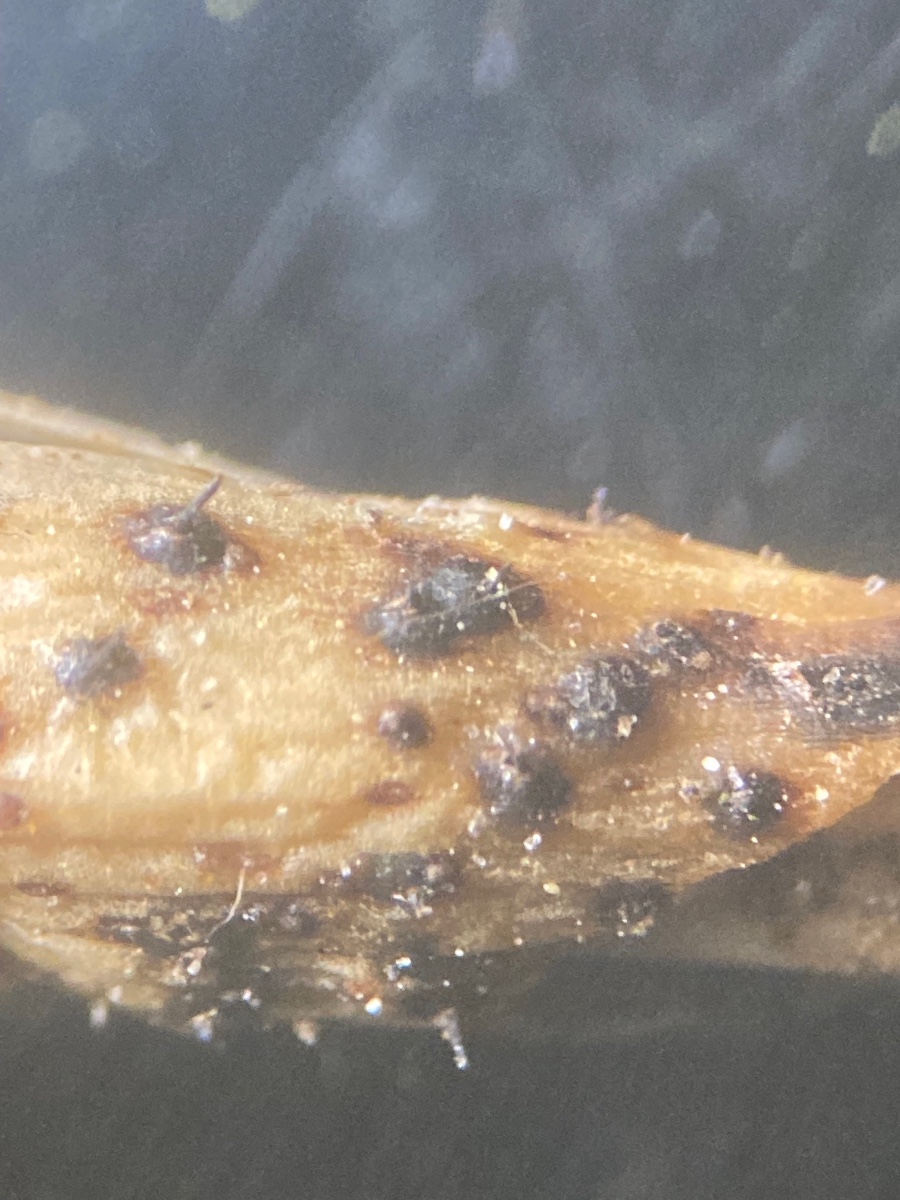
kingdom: Fungi
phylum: Ascomycota
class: Sordariomycetes
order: Diaporthales
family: Gnomoniaceae
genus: Apiognomonia
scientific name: Apiognomonia hystrix
